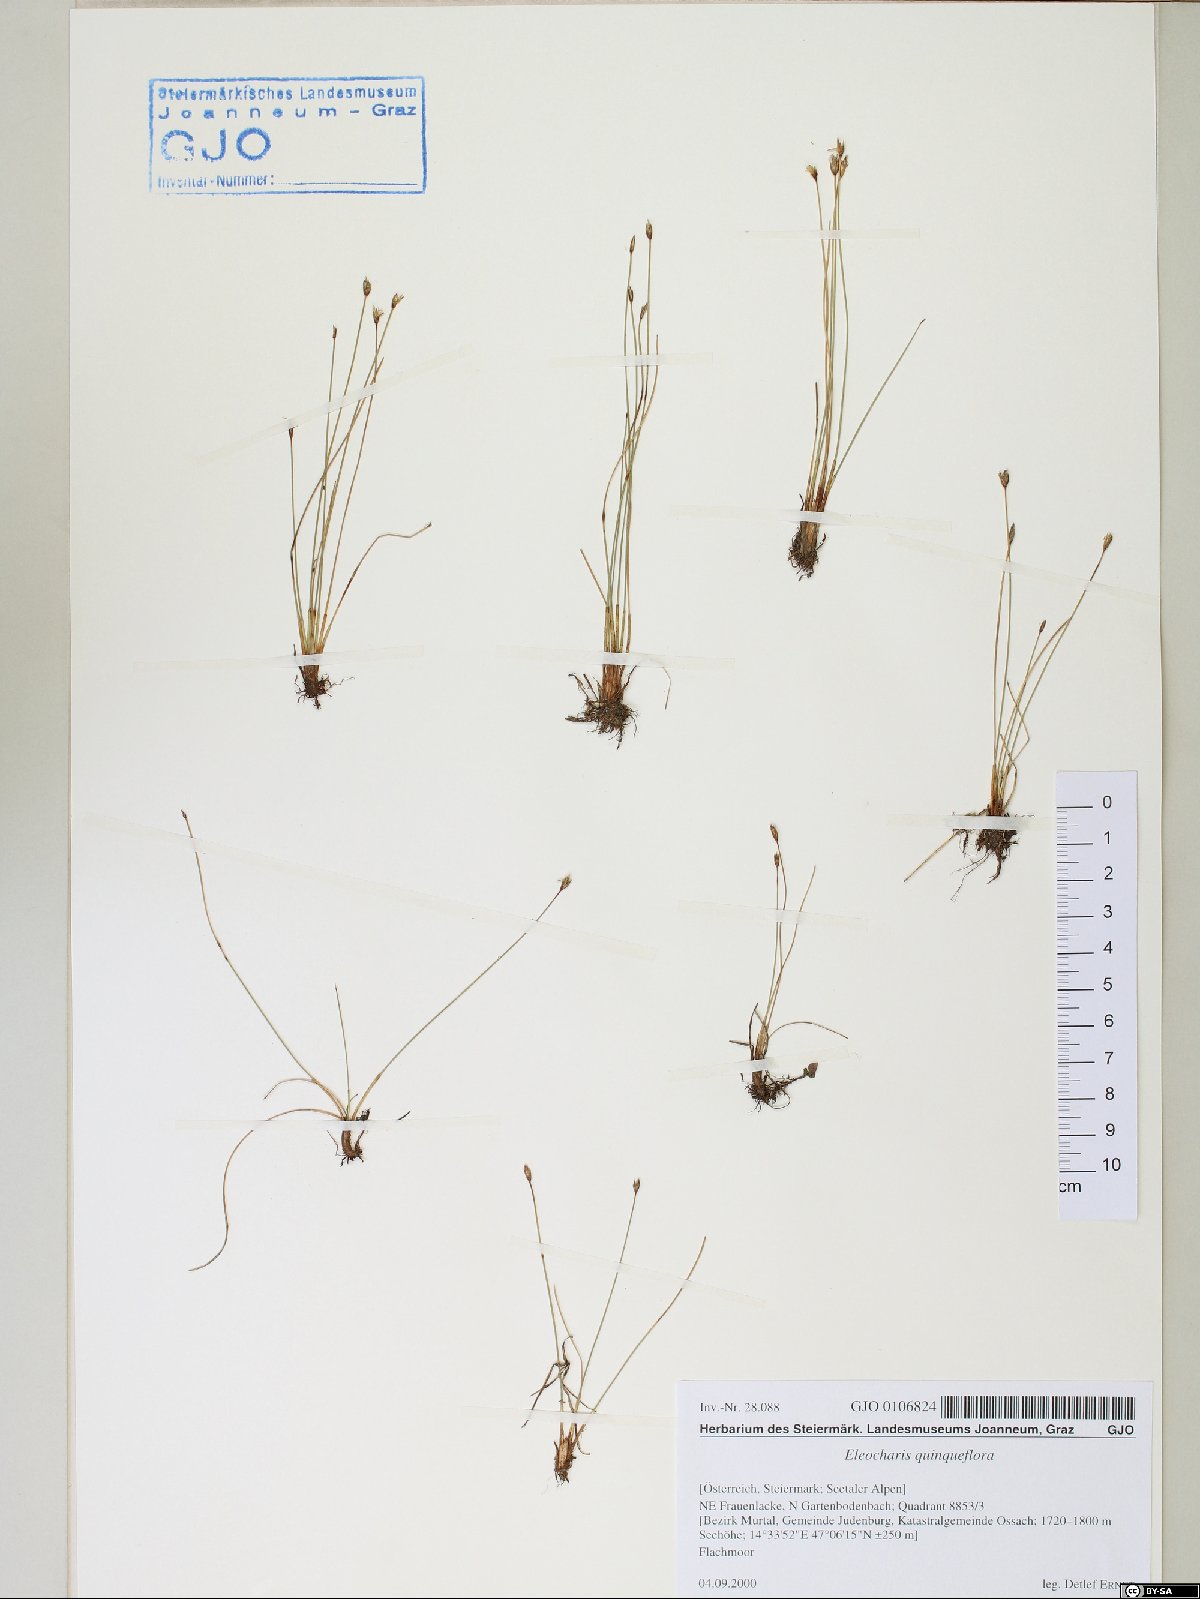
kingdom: Plantae
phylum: Tracheophyta
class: Liliopsida
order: Poales
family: Cyperaceae
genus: Eleocharis
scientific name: Eleocharis quinqueflora
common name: Few-flowered spike-rush
